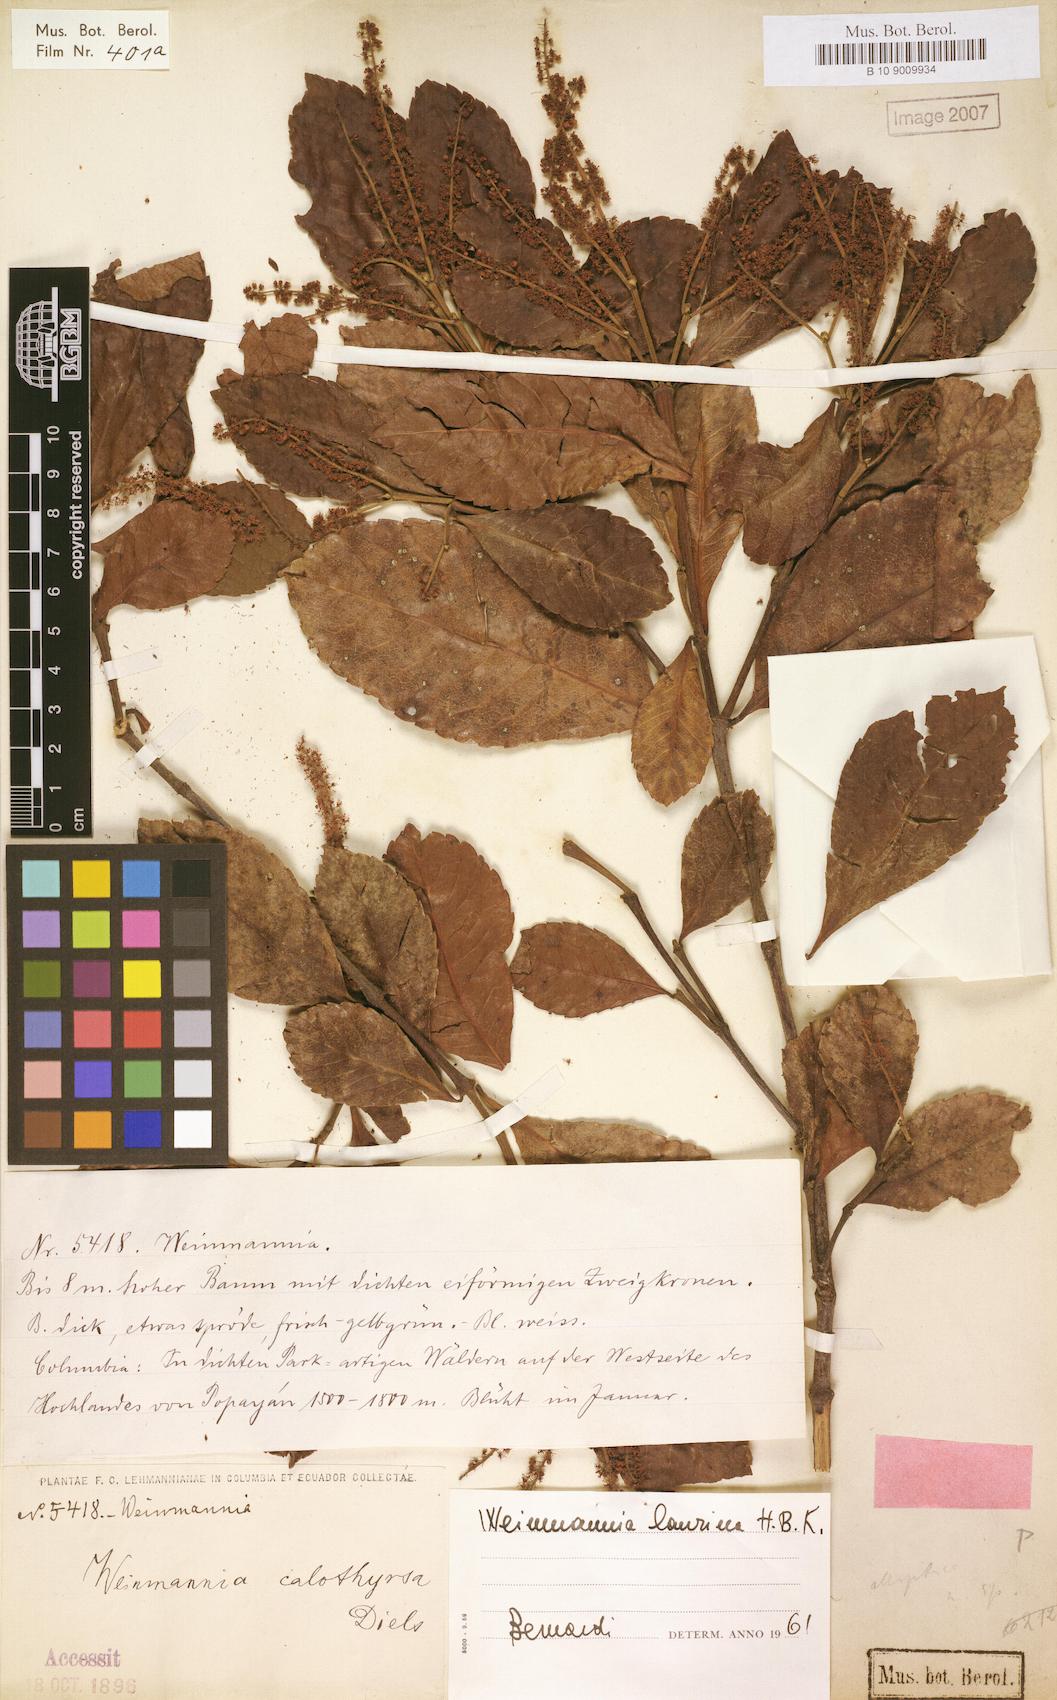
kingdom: Plantae
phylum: Tracheophyta
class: Magnoliopsida
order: Oxalidales
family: Cunoniaceae
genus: Weinmannia
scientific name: Weinmannia balbisana
